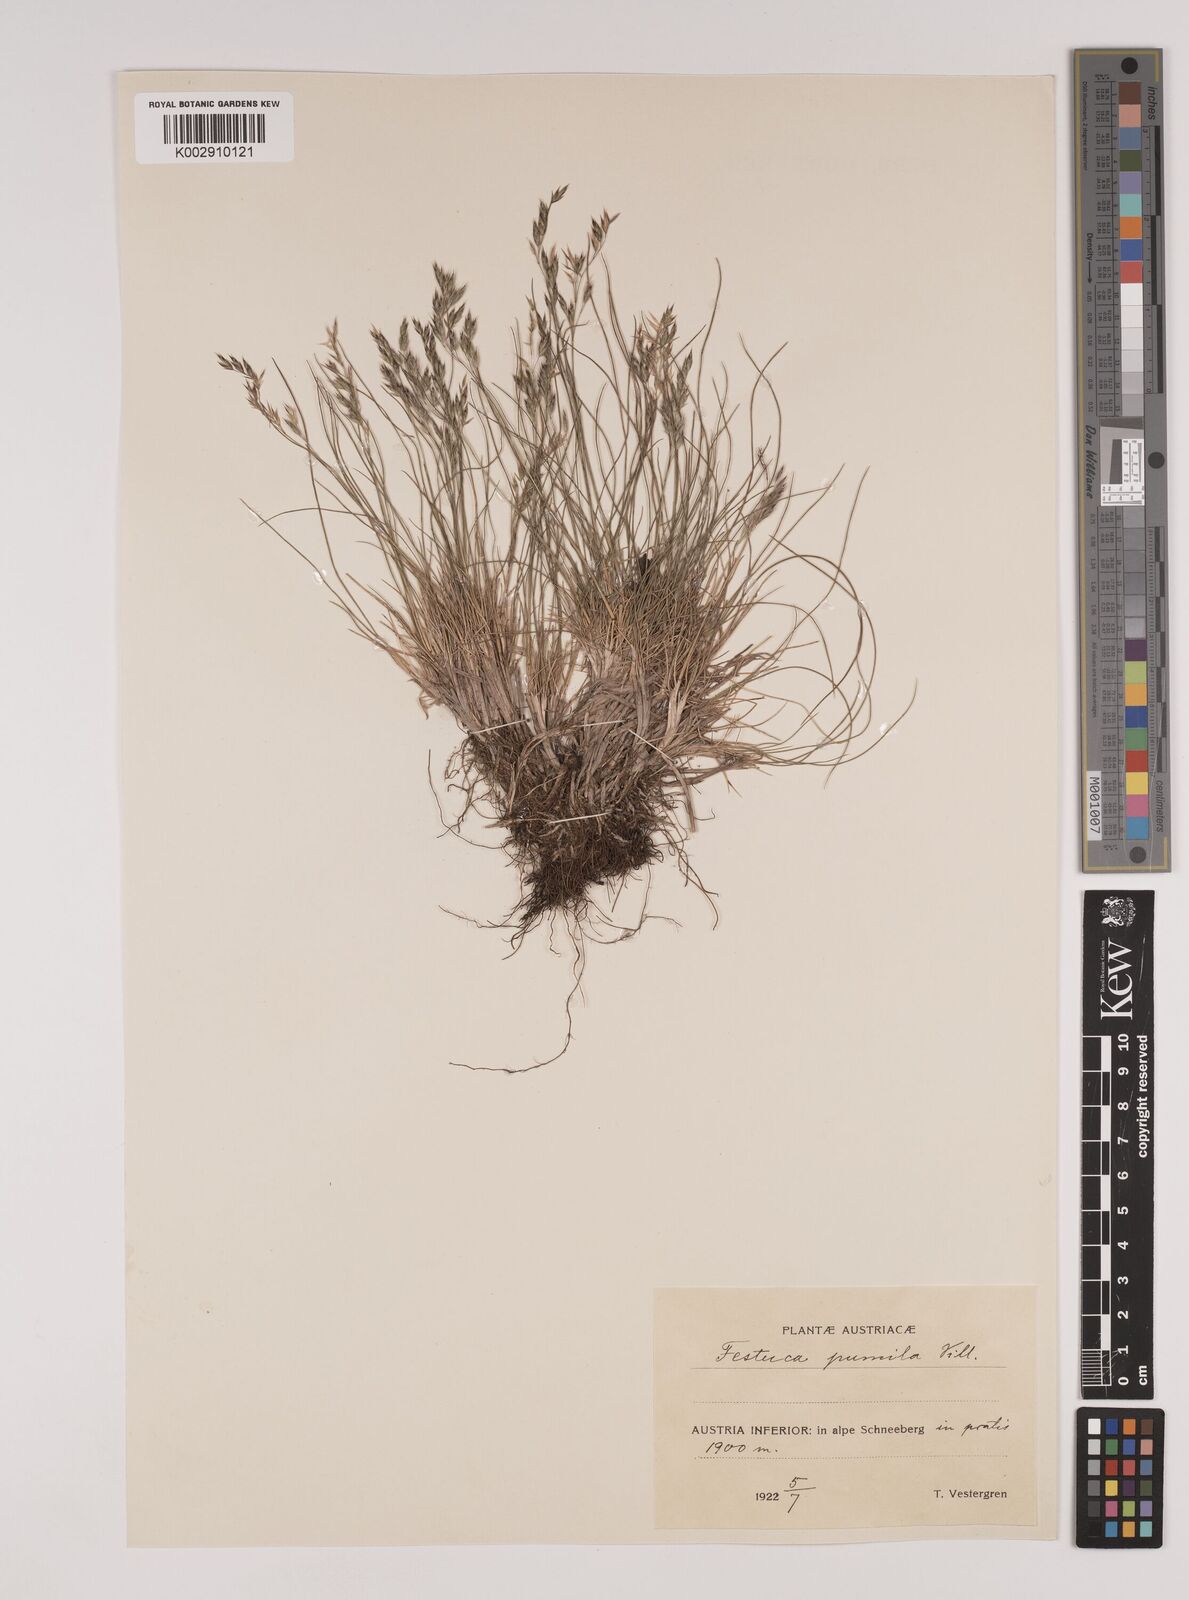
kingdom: Plantae
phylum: Tracheophyta
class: Liliopsida
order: Poales
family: Poaceae
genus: Festuca
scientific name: Festuca
